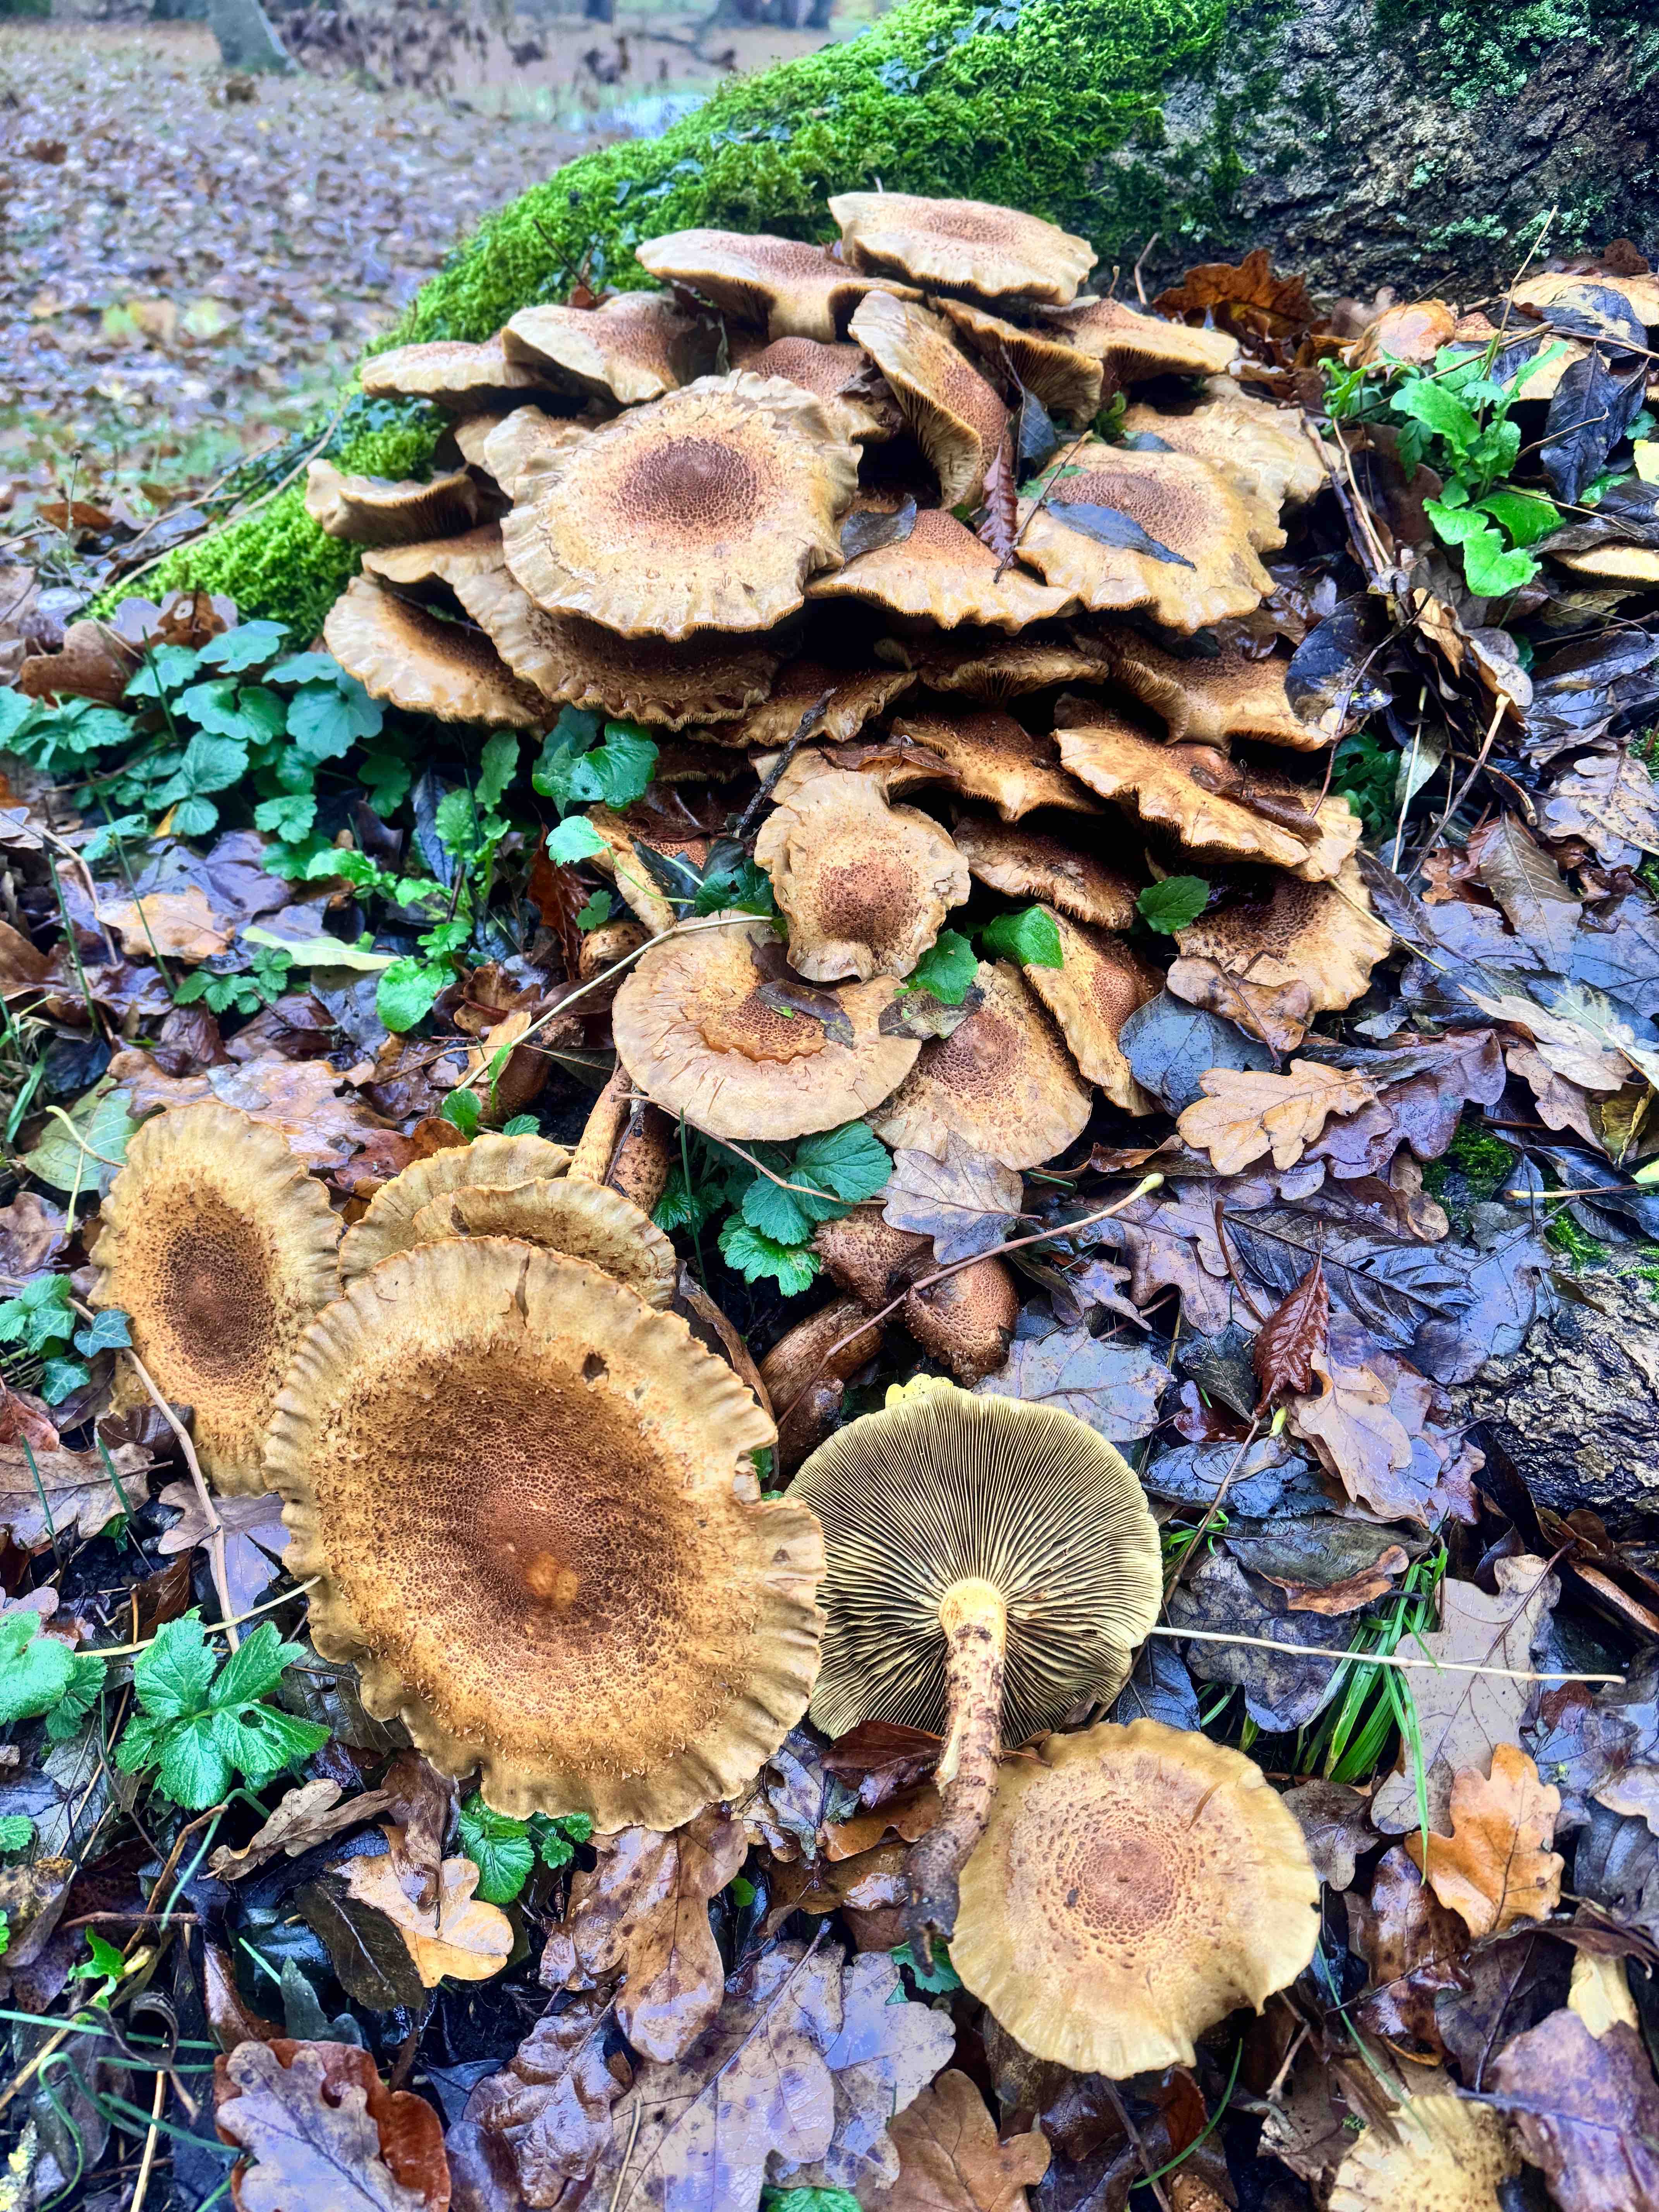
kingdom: Fungi
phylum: Basidiomycota
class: Agaricomycetes
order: Agaricales
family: Strophariaceae
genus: Pholiota
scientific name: Pholiota squarrosa
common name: krumskællet skælhat
